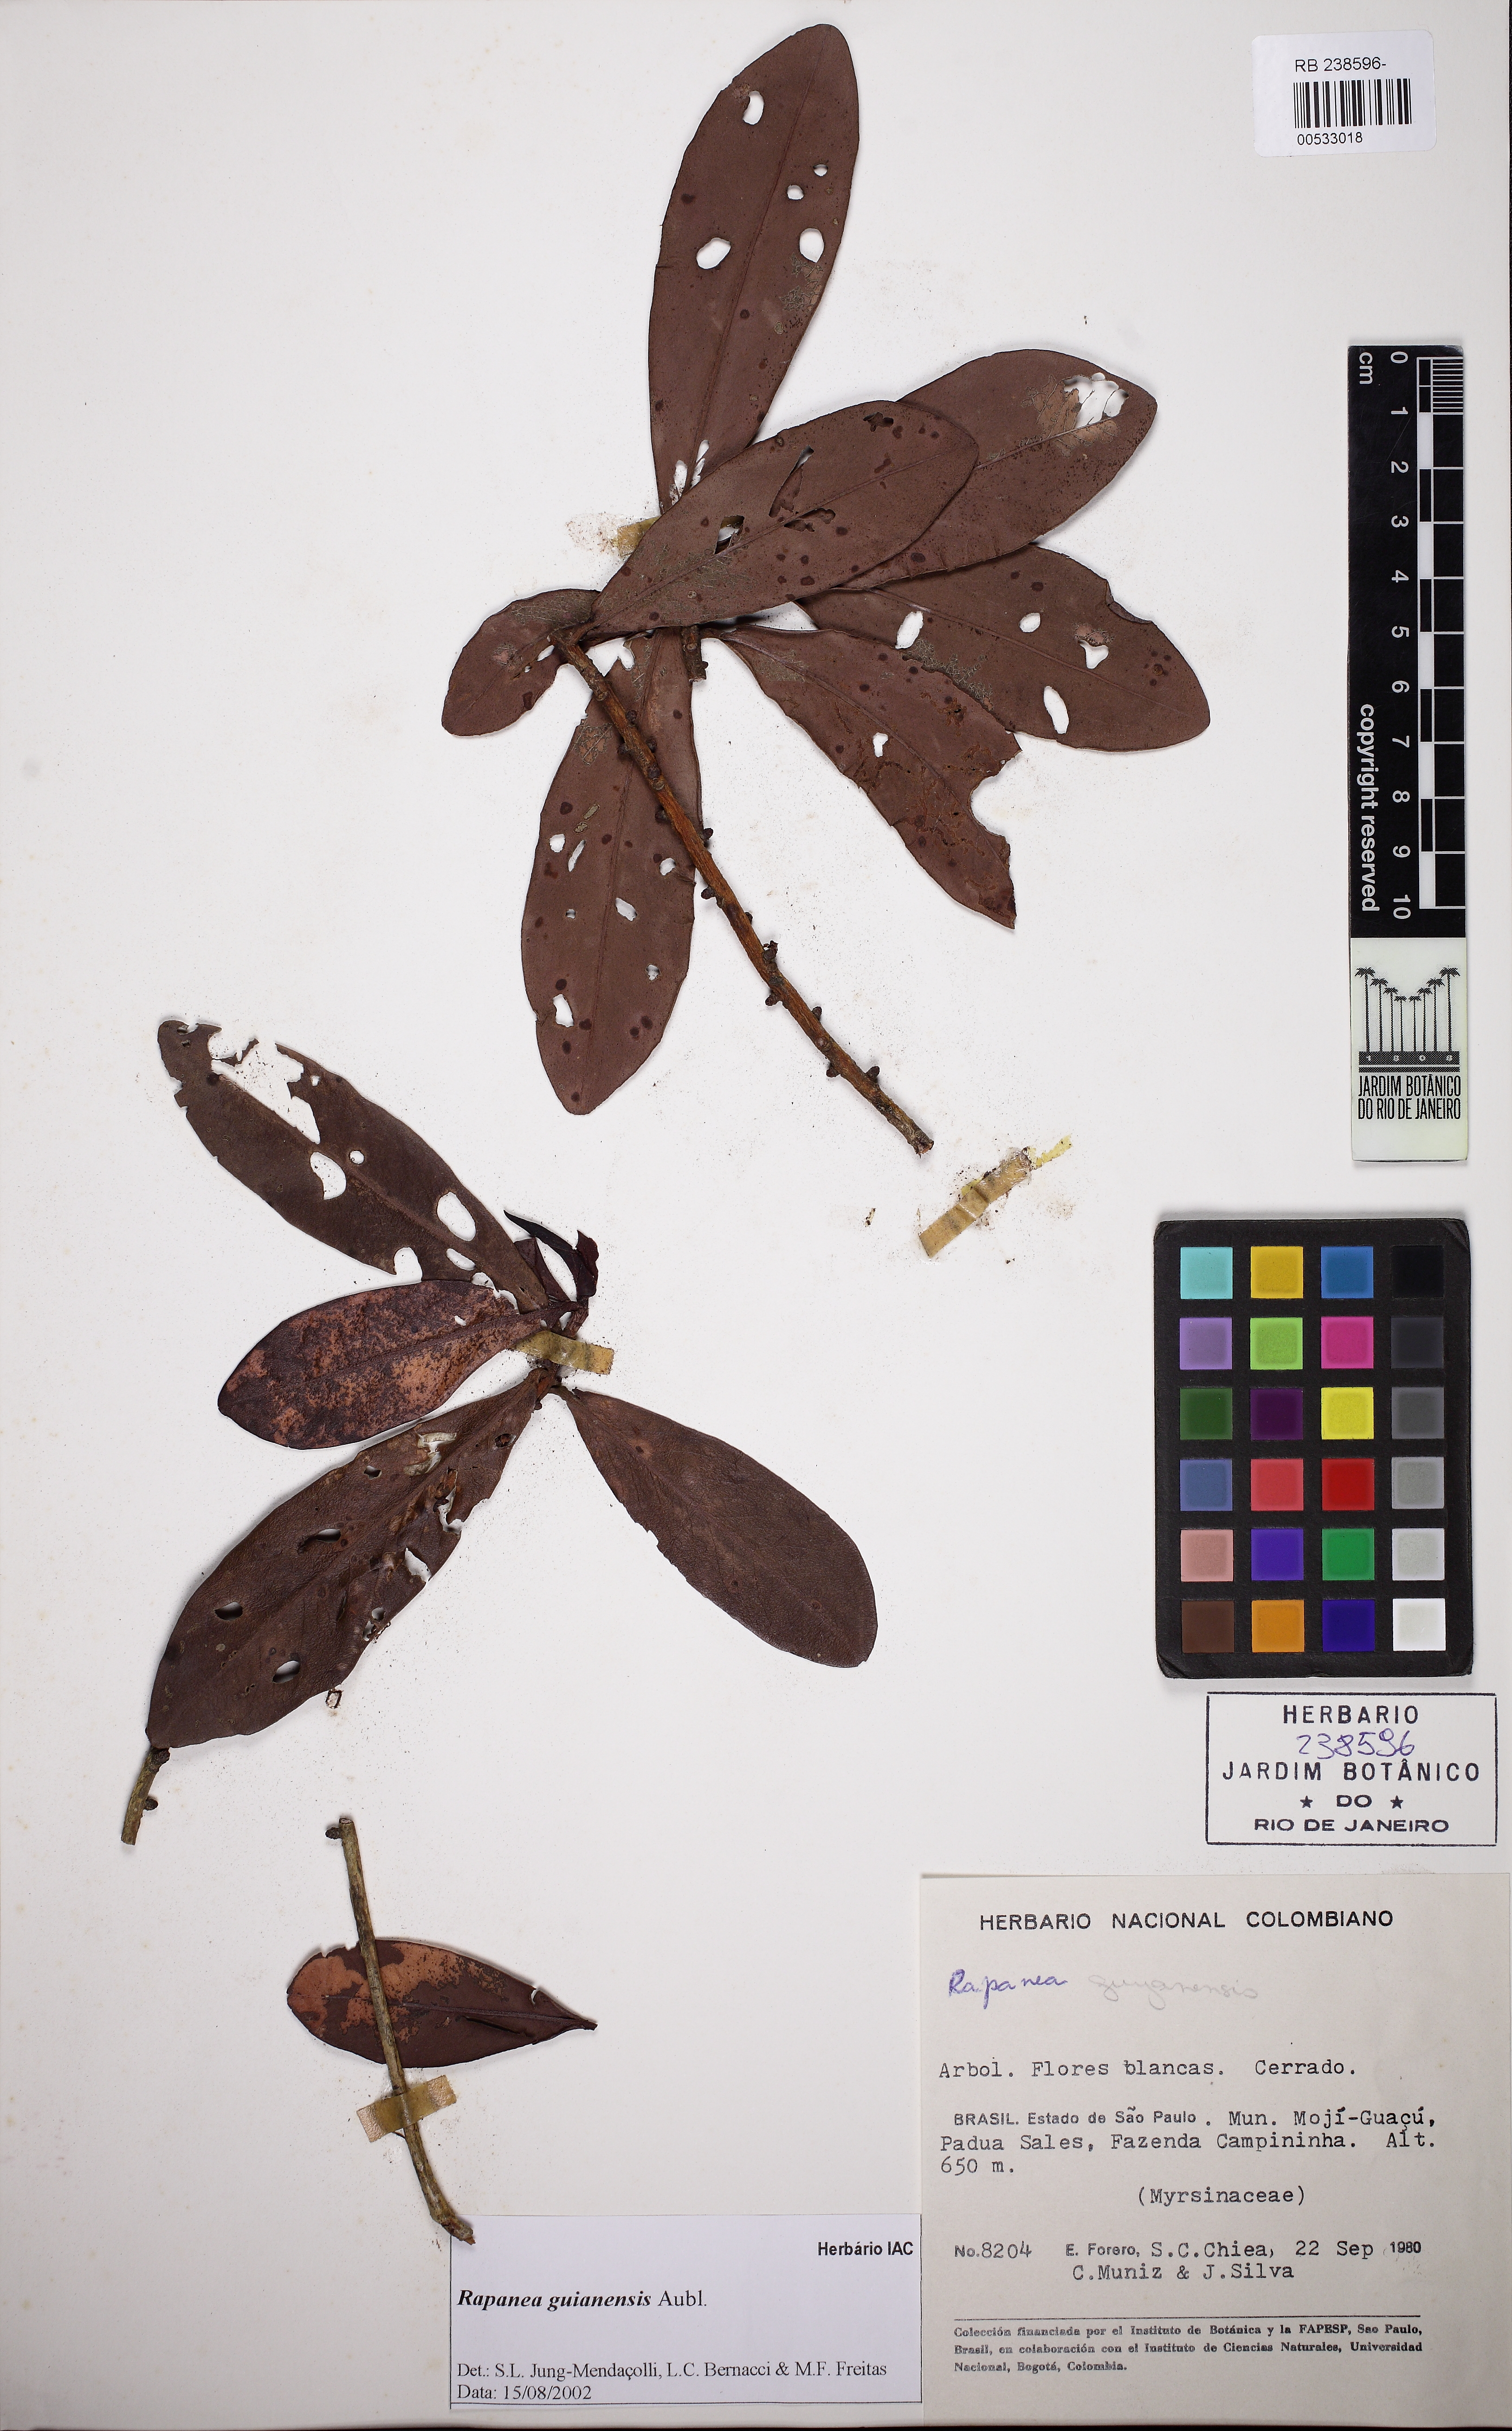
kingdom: Plantae
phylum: Tracheophyta
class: Magnoliopsida
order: Ericales
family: Primulaceae
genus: Myrsine
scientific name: Myrsine guianensis
